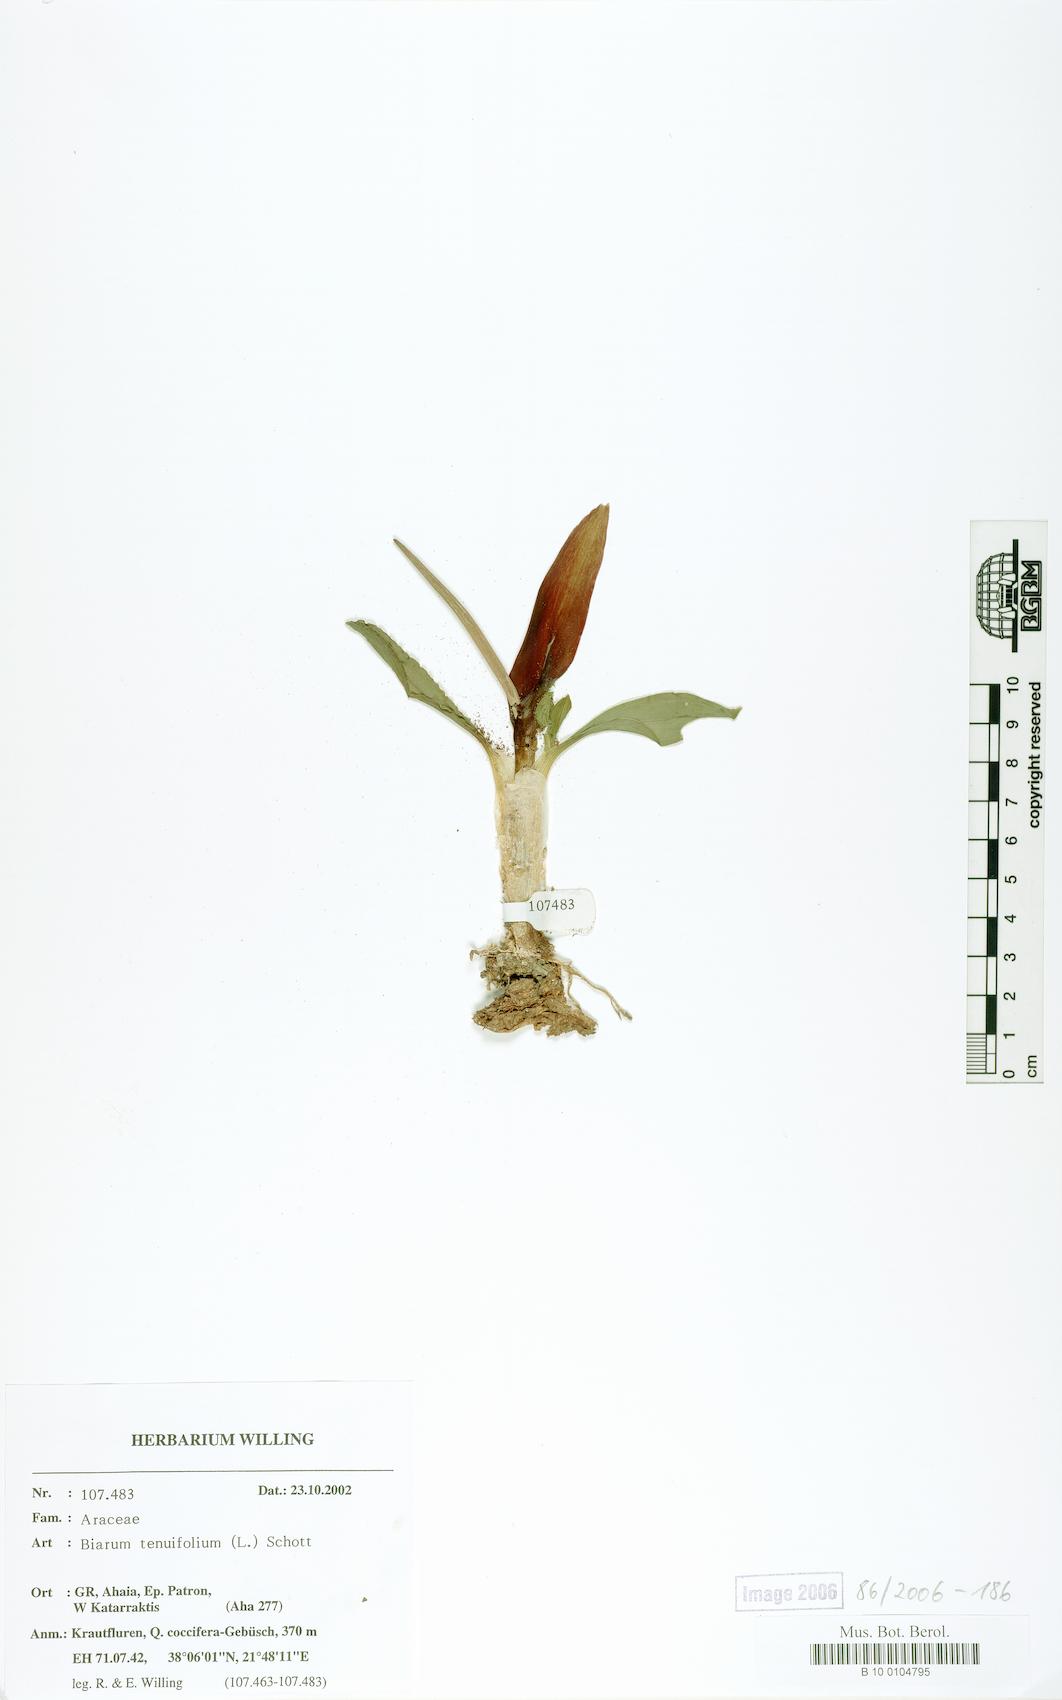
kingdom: Plantae
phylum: Tracheophyta
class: Liliopsida
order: Alismatales
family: Araceae
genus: Biarum
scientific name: Biarum tenuifolium
